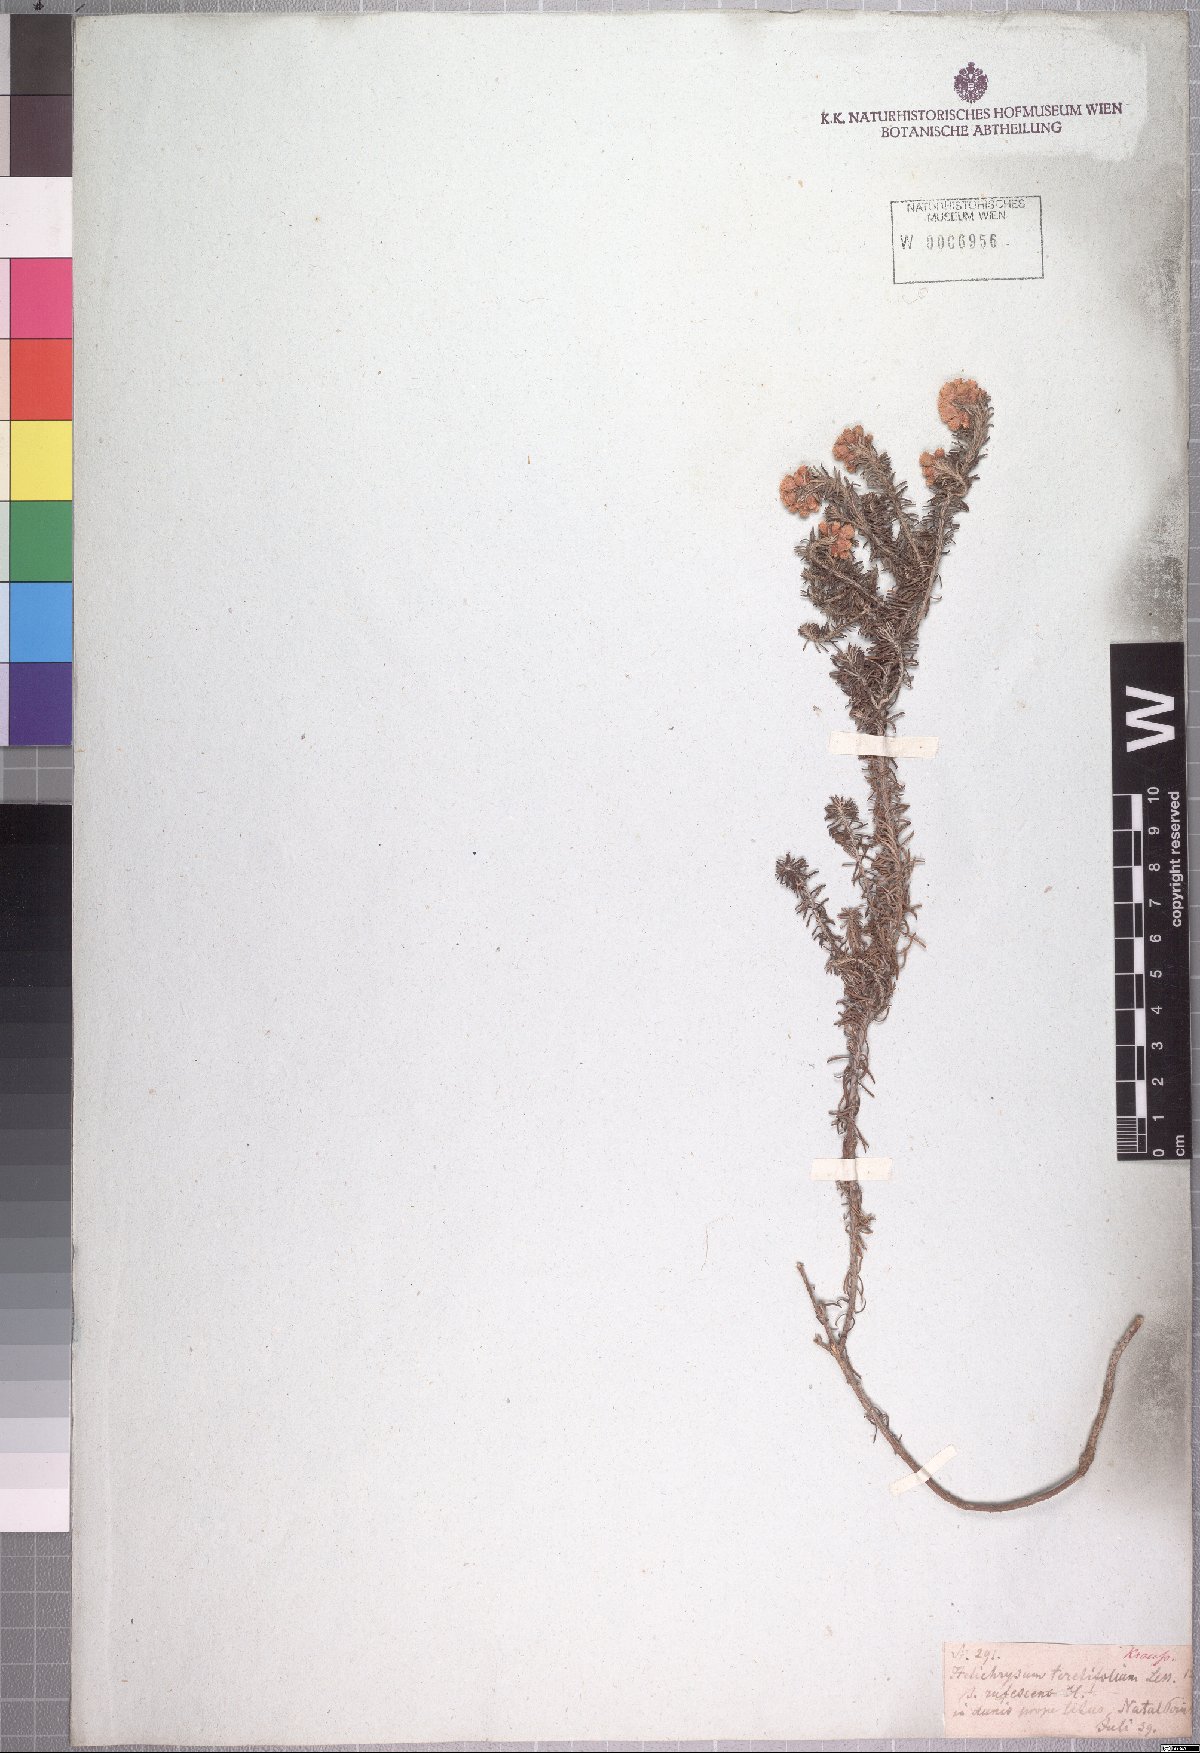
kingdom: Plantae
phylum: Tracheophyta
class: Magnoliopsida
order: Asterales
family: Asteraceae
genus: Helichrysum
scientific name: Helichrysum teretifolium
